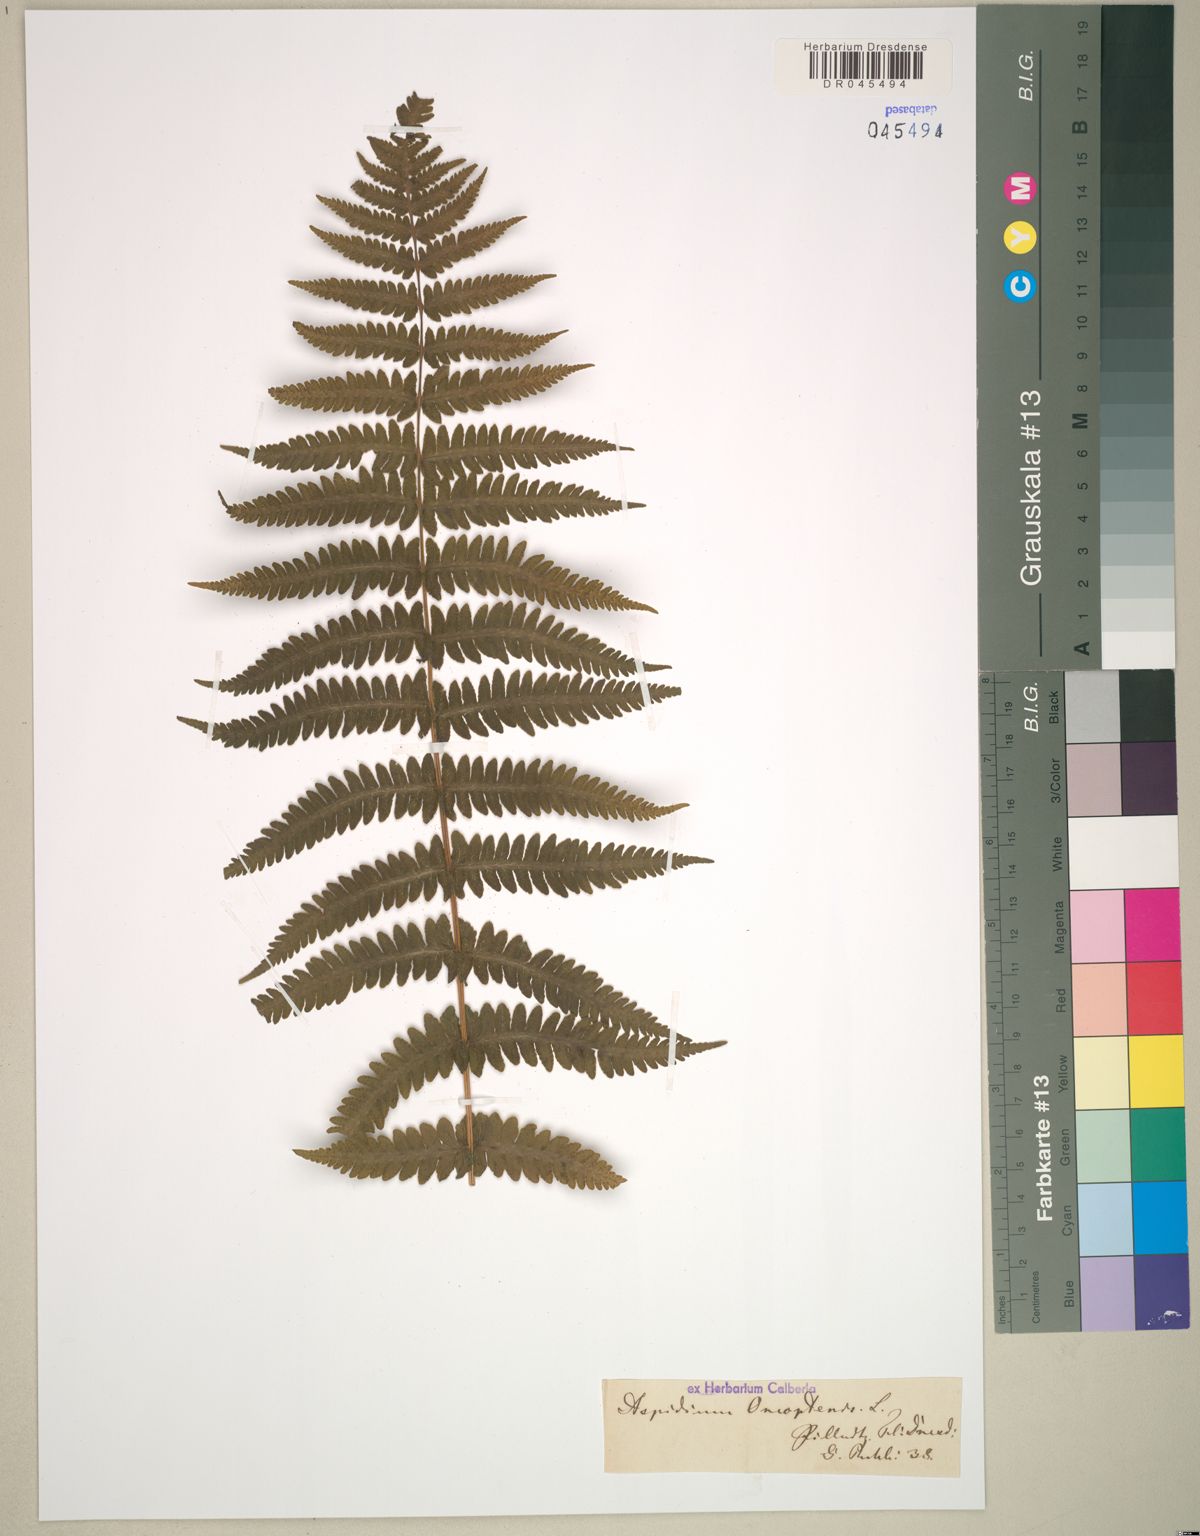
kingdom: Plantae
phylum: Tracheophyta
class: Polypodiopsida
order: Polypodiales
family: Thelypteridaceae
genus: Oreopteris
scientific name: Oreopteris limbosperma
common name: Lemon-scented fern
